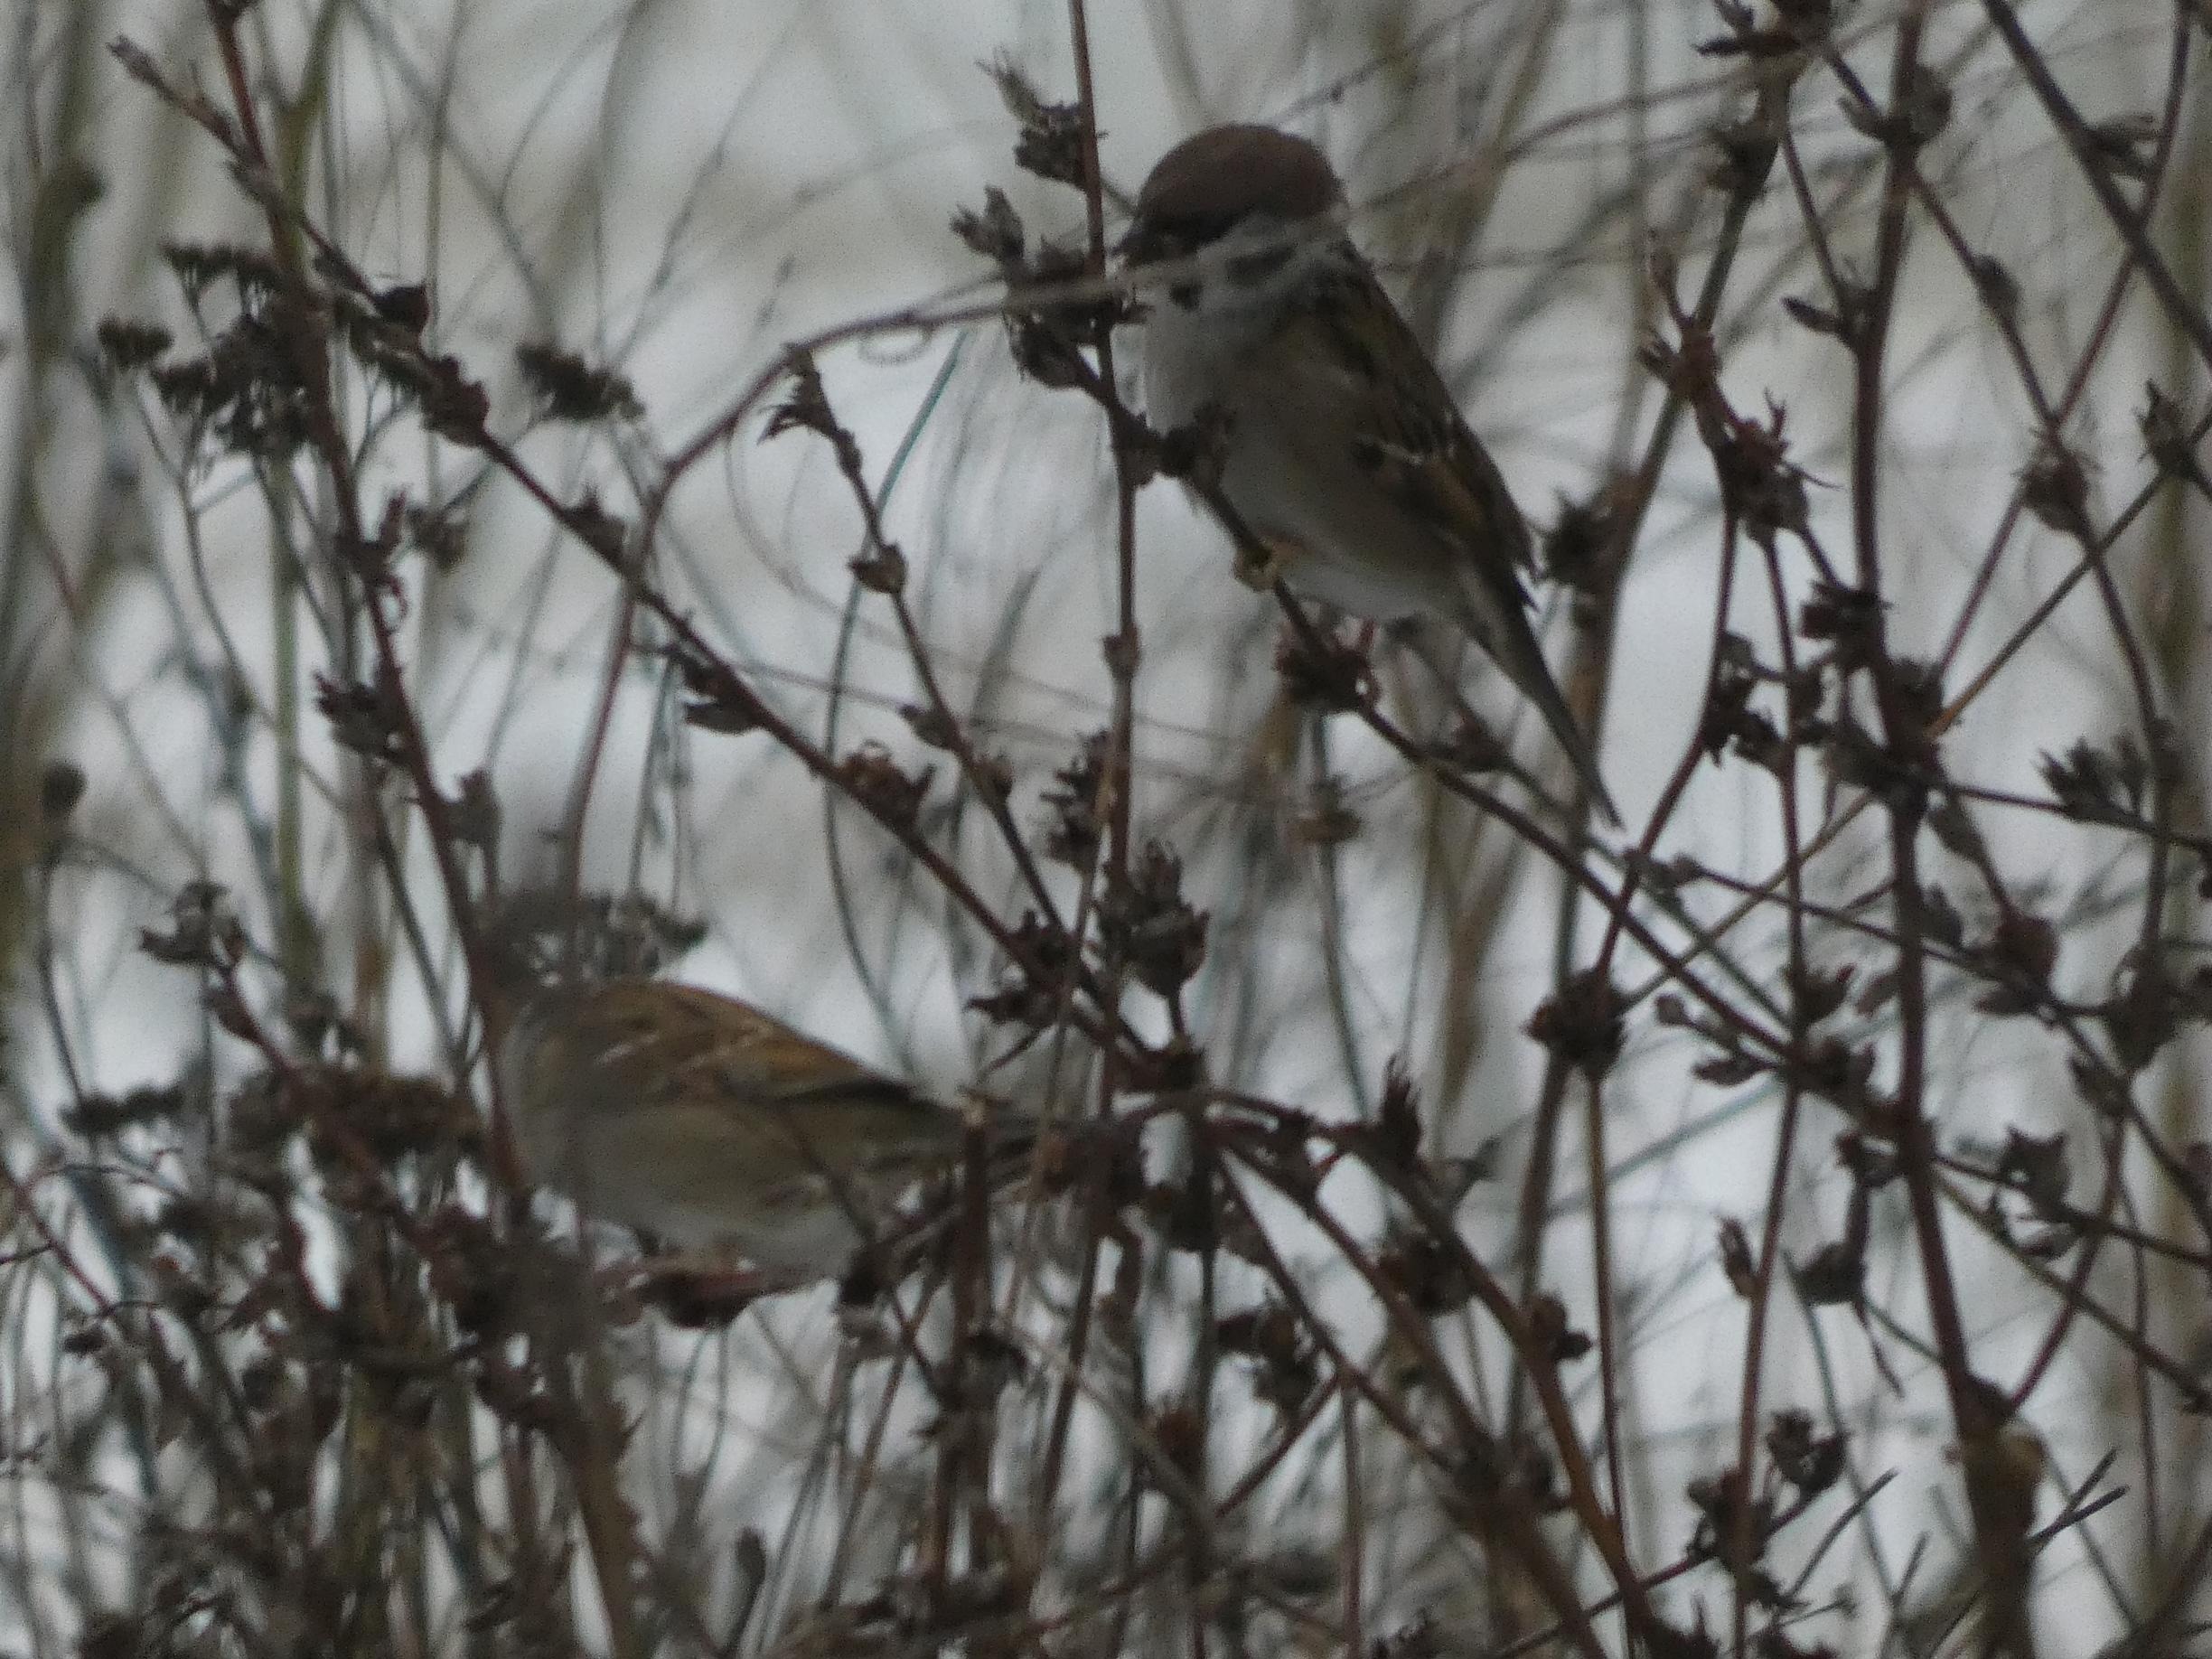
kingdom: Animalia
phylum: Chordata
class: Aves
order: Passeriformes
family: Passeridae
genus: Passer
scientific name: Passer montanus
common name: Skovspurv
